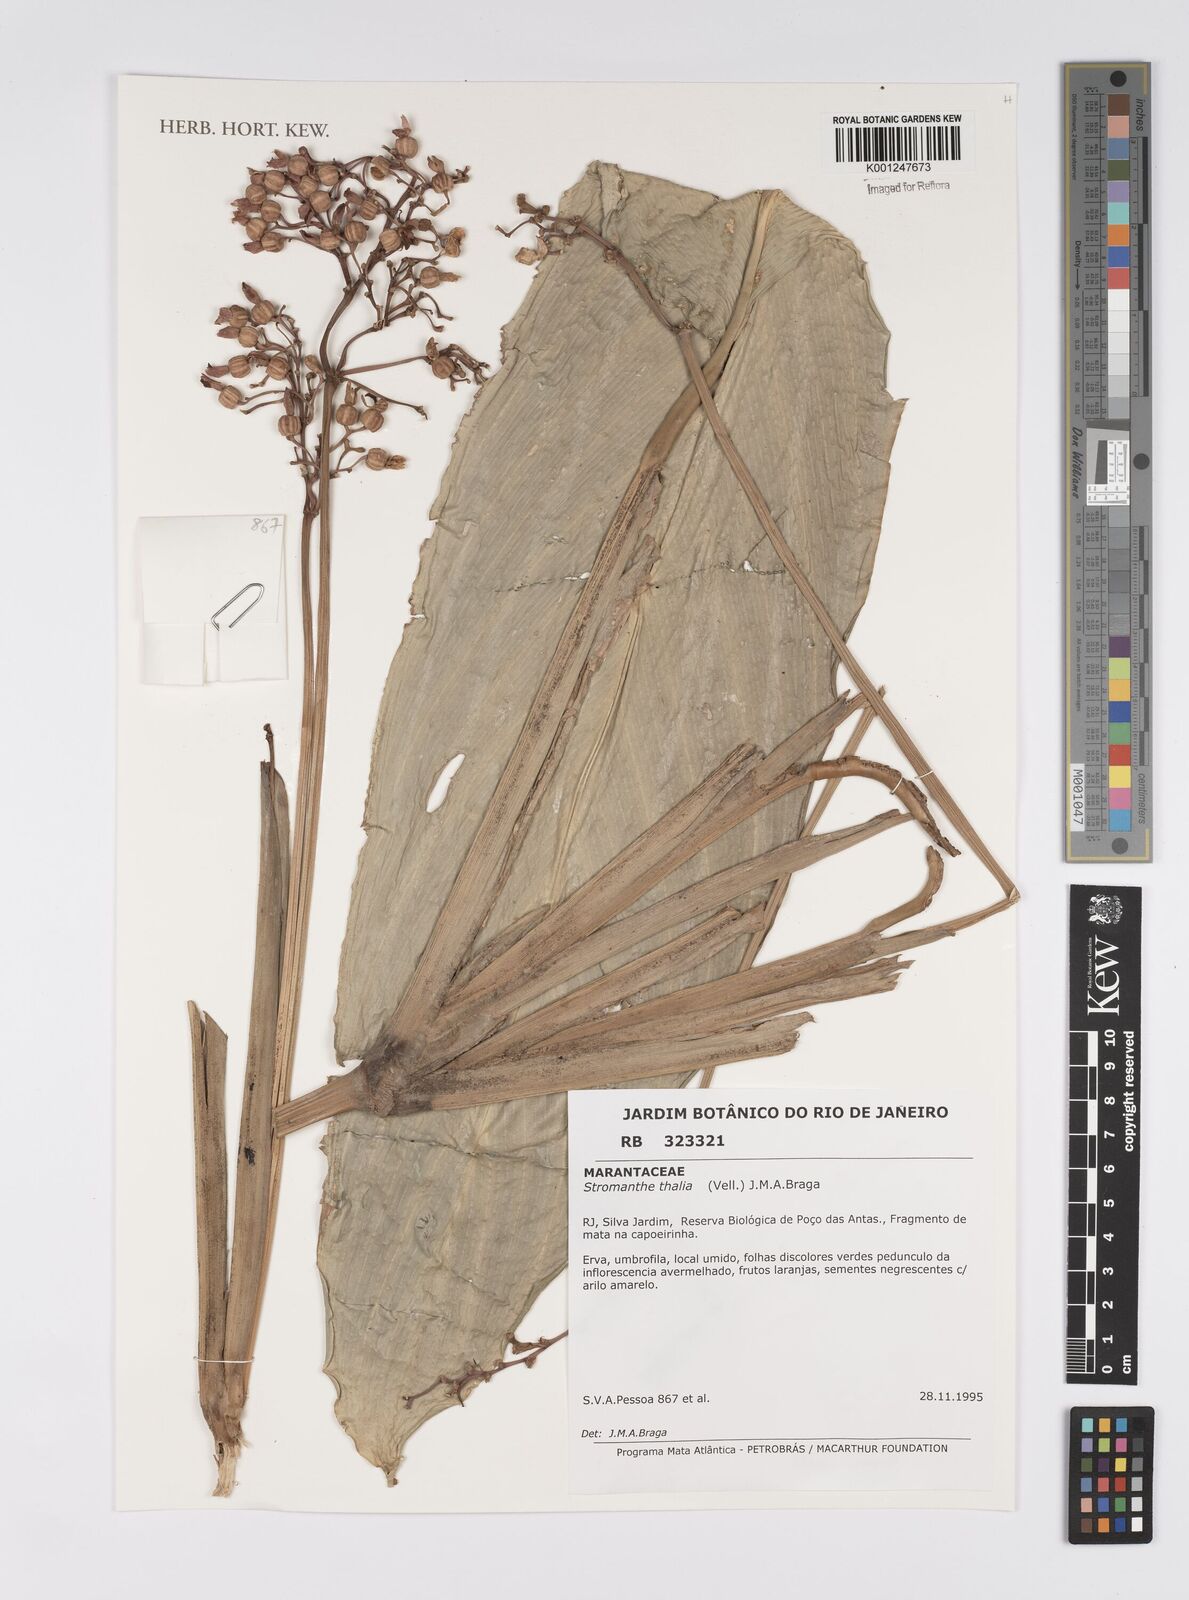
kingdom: Plantae
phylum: Tracheophyta
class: Liliopsida
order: Zingiberales
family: Marantaceae
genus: Stromanthe
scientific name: Stromanthe thalia
